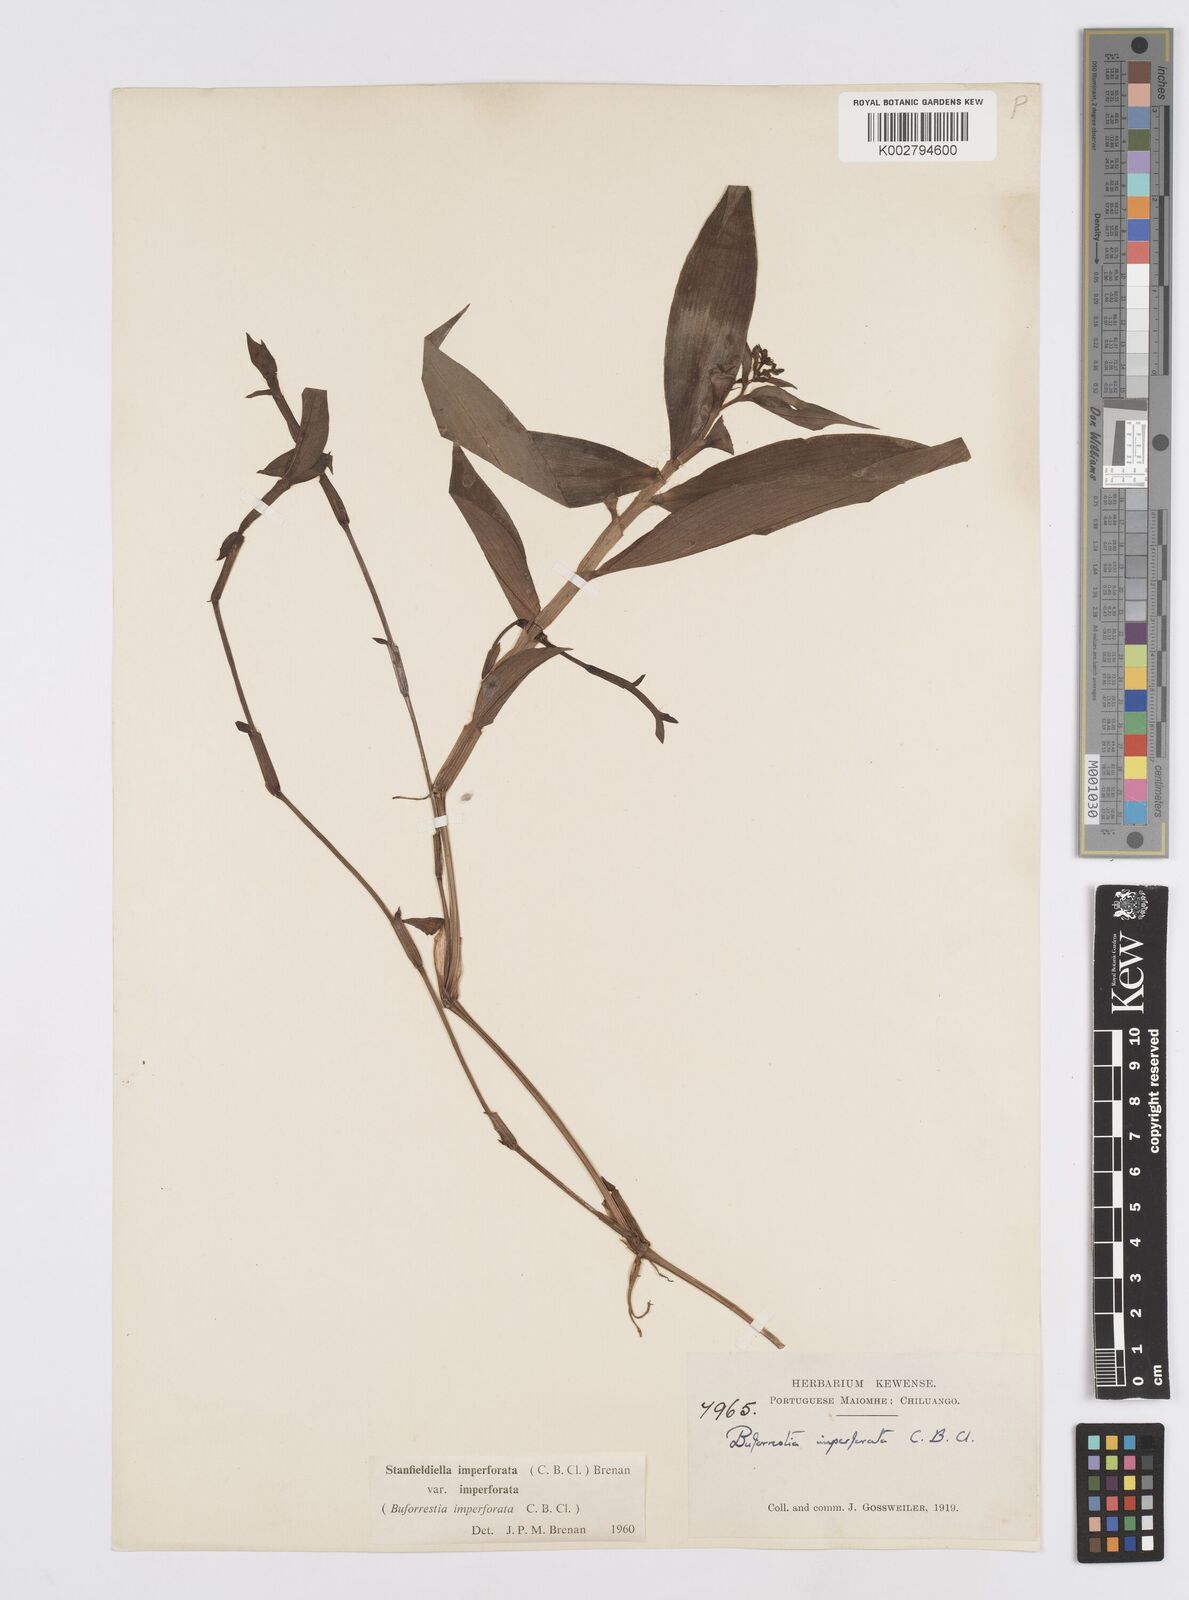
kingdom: Plantae
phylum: Tracheophyta
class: Liliopsida
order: Commelinales
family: Commelinaceae
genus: Stanfieldiella
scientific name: Stanfieldiella imperforata
